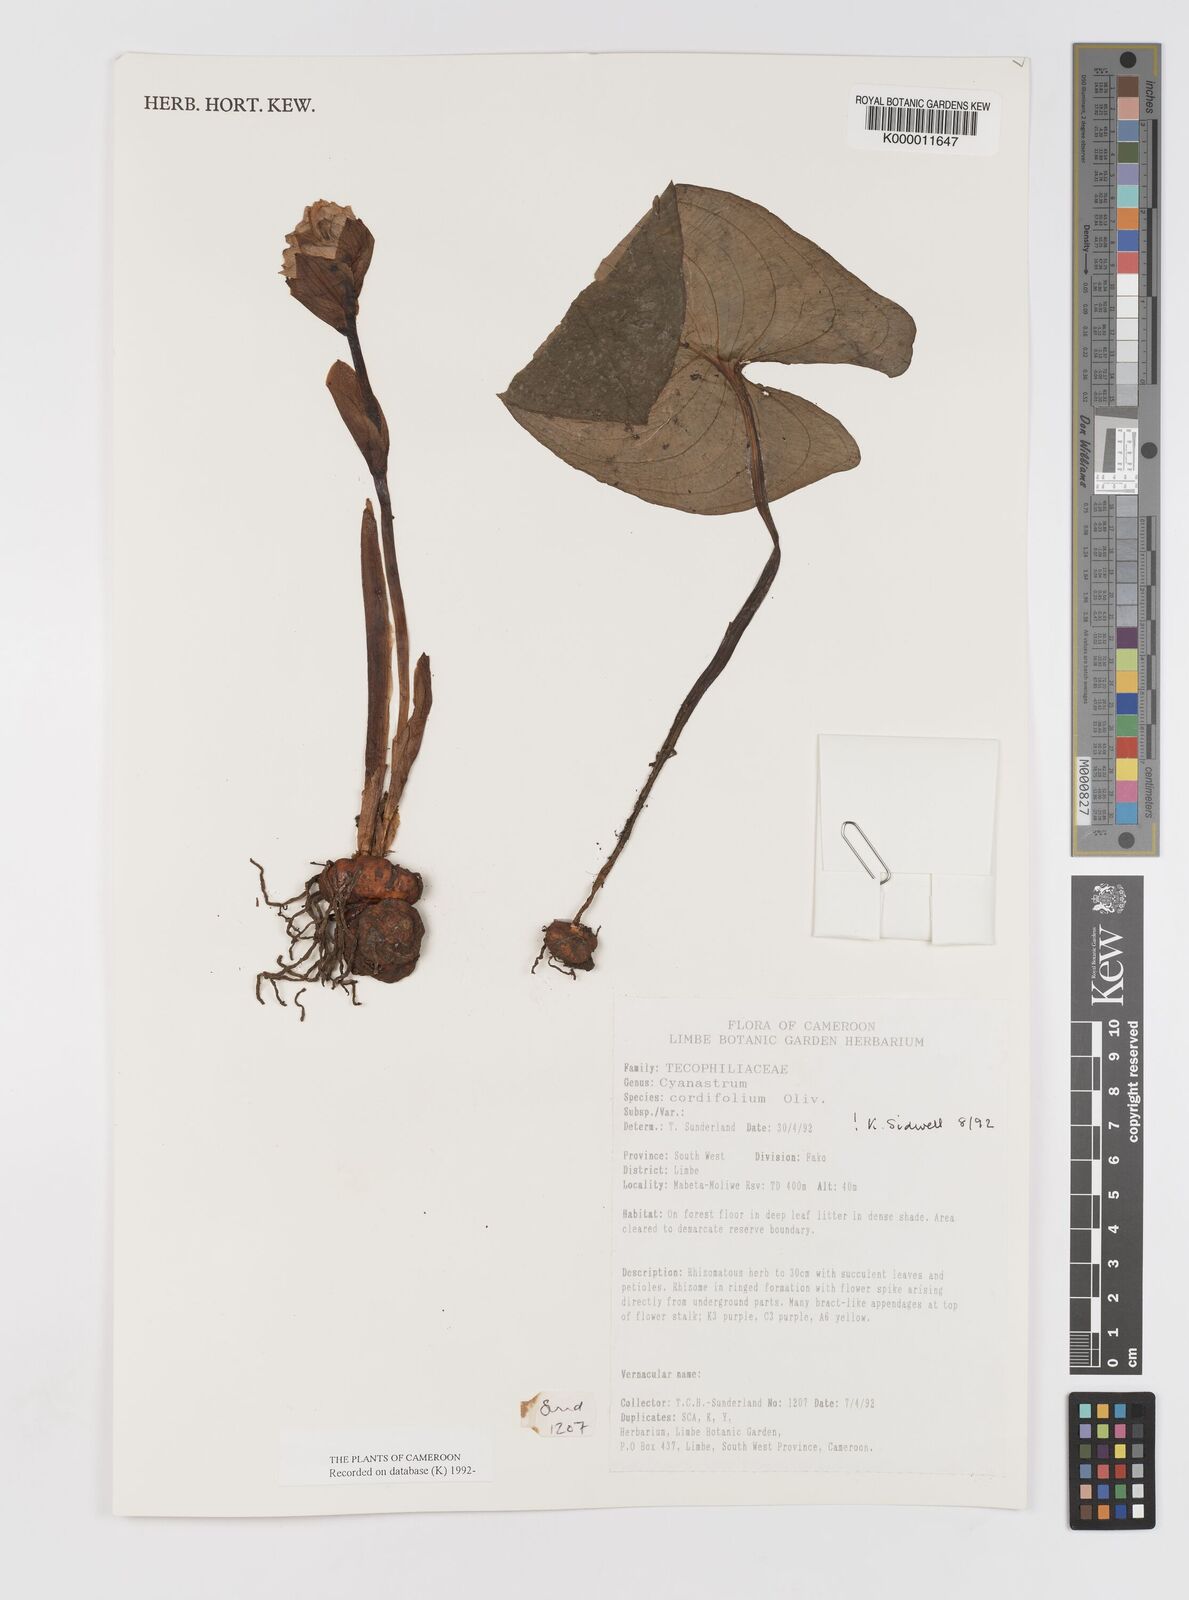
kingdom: Plantae
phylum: Tracheophyta
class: Liliopsida
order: Asparagales
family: Tecophilaeaceae
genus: Cyanastrum
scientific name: Cyanastrum cordifolium
